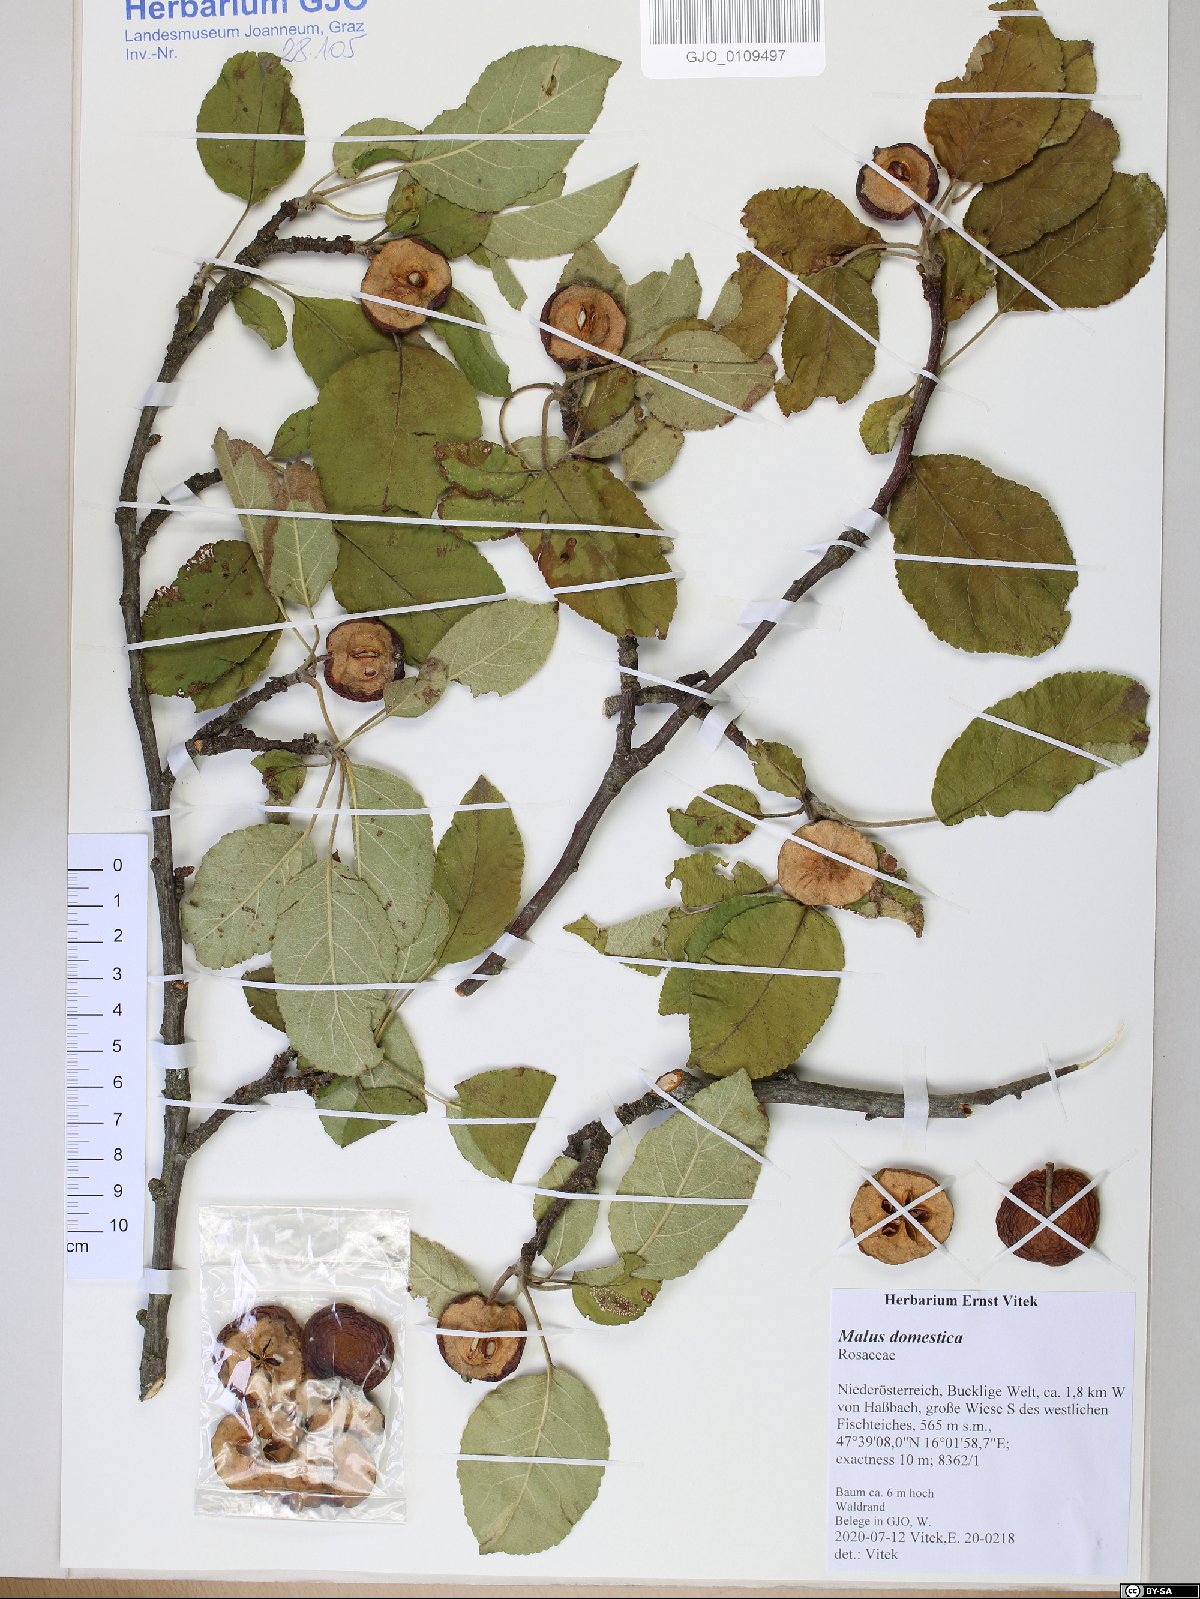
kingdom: Plantae
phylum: Tracheophyta
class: Magnoliopsida
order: Rosales
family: Rosaceae
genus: Malus
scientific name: Malus domestica
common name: Apple
